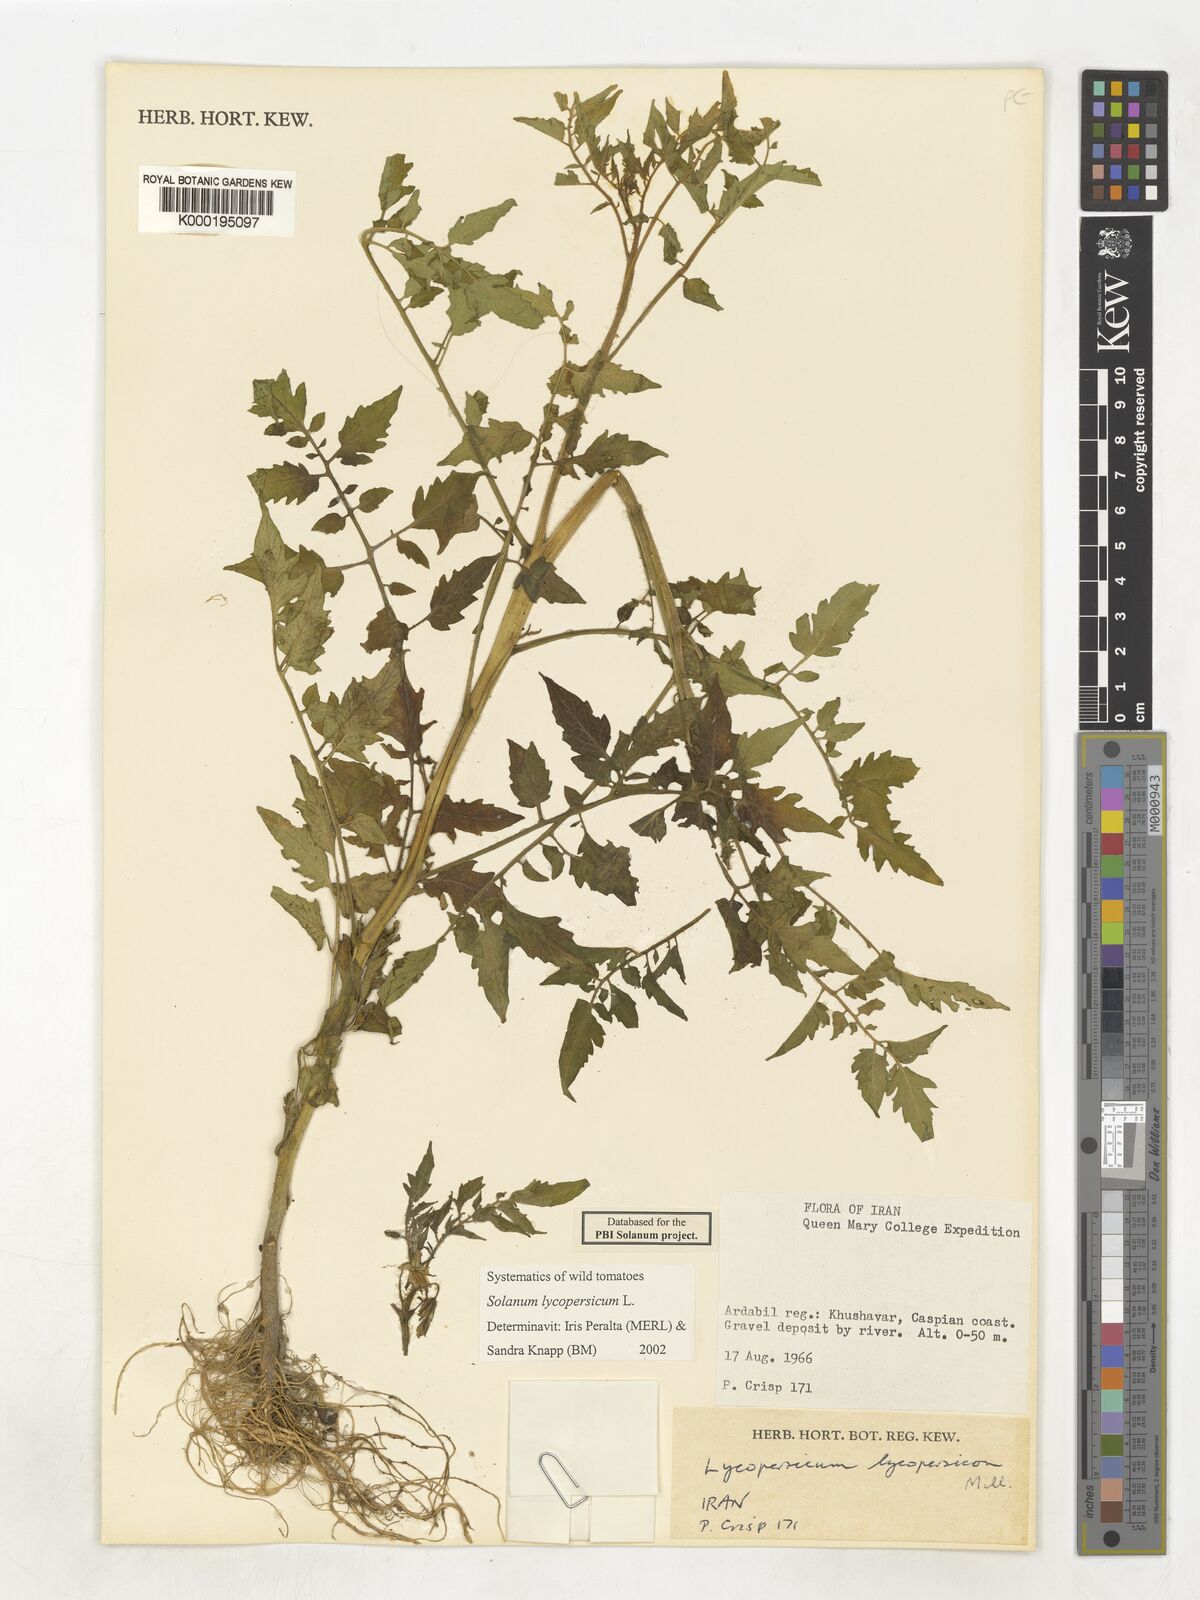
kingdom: Plantae
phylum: Tracheophyta
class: Magnoliopsida
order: Solanales
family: Solanaceae
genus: Solanum
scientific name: Solanum lycopersicum
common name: Garden tomato
